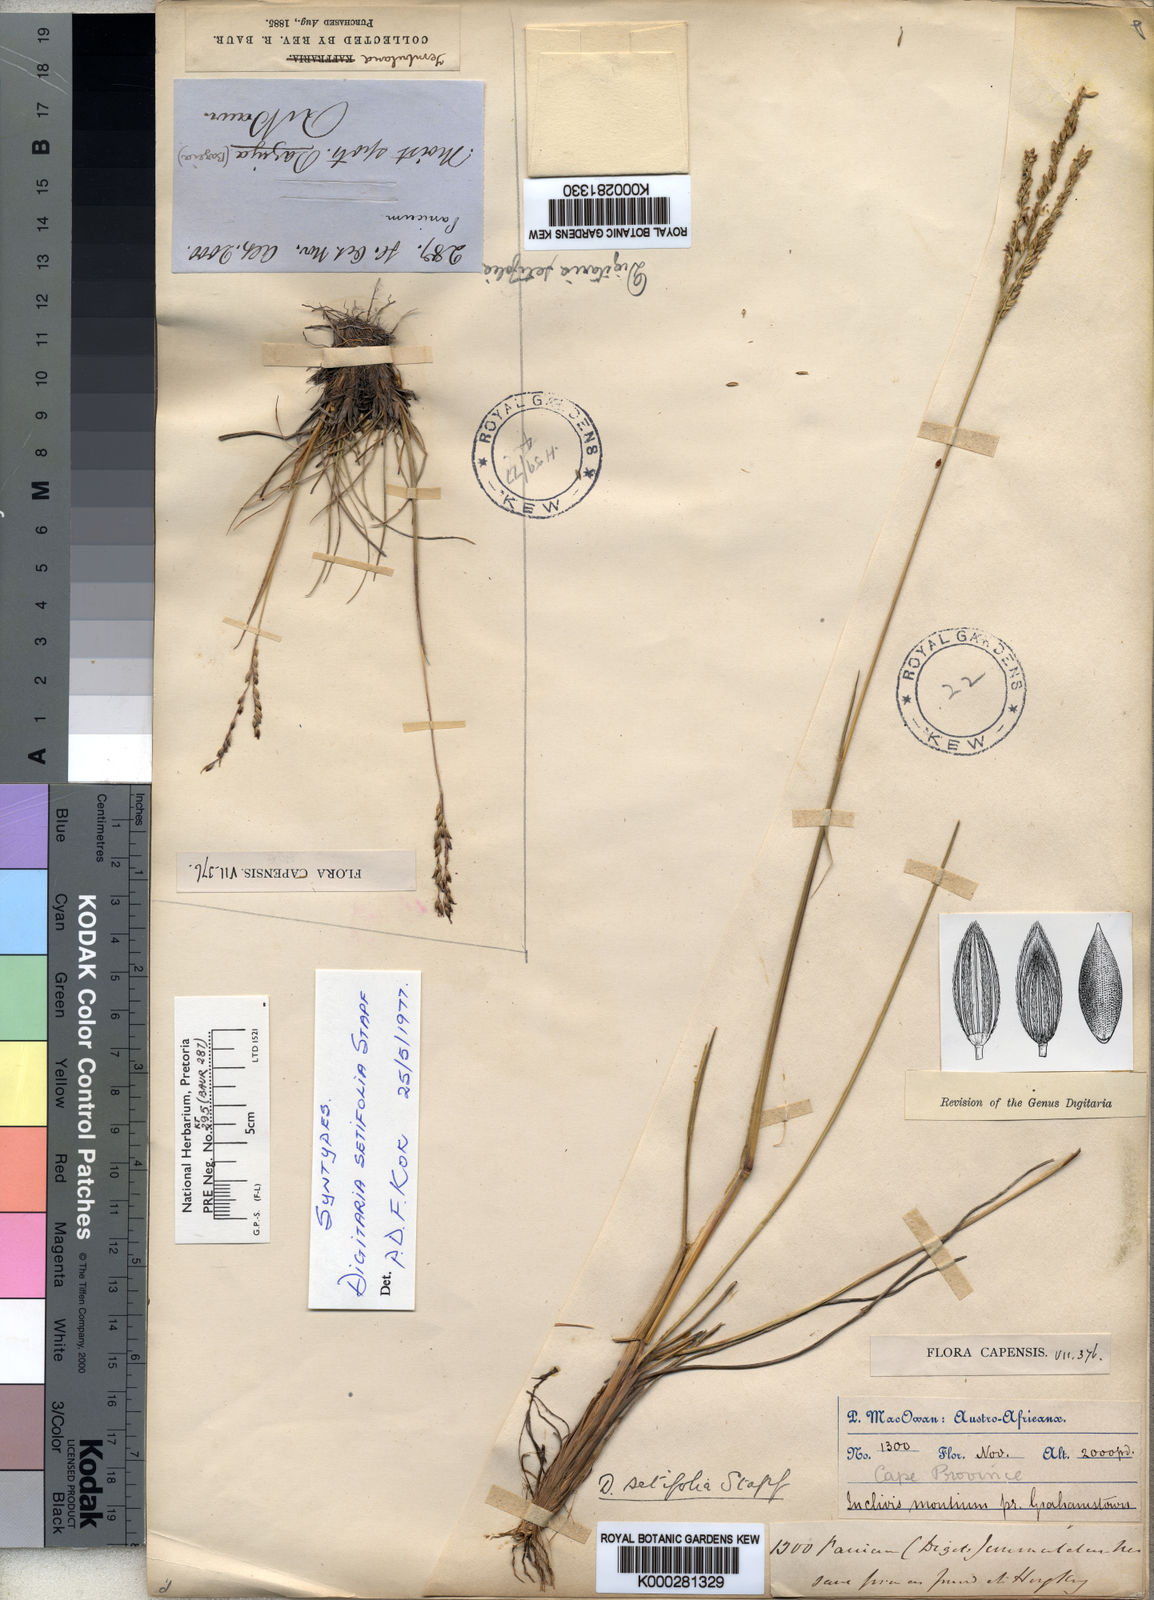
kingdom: Plantae
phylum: Tracheophyta
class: Liliopsida
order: Poales
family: Poaceae
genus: Digitaria
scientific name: Digitaria setifolia
